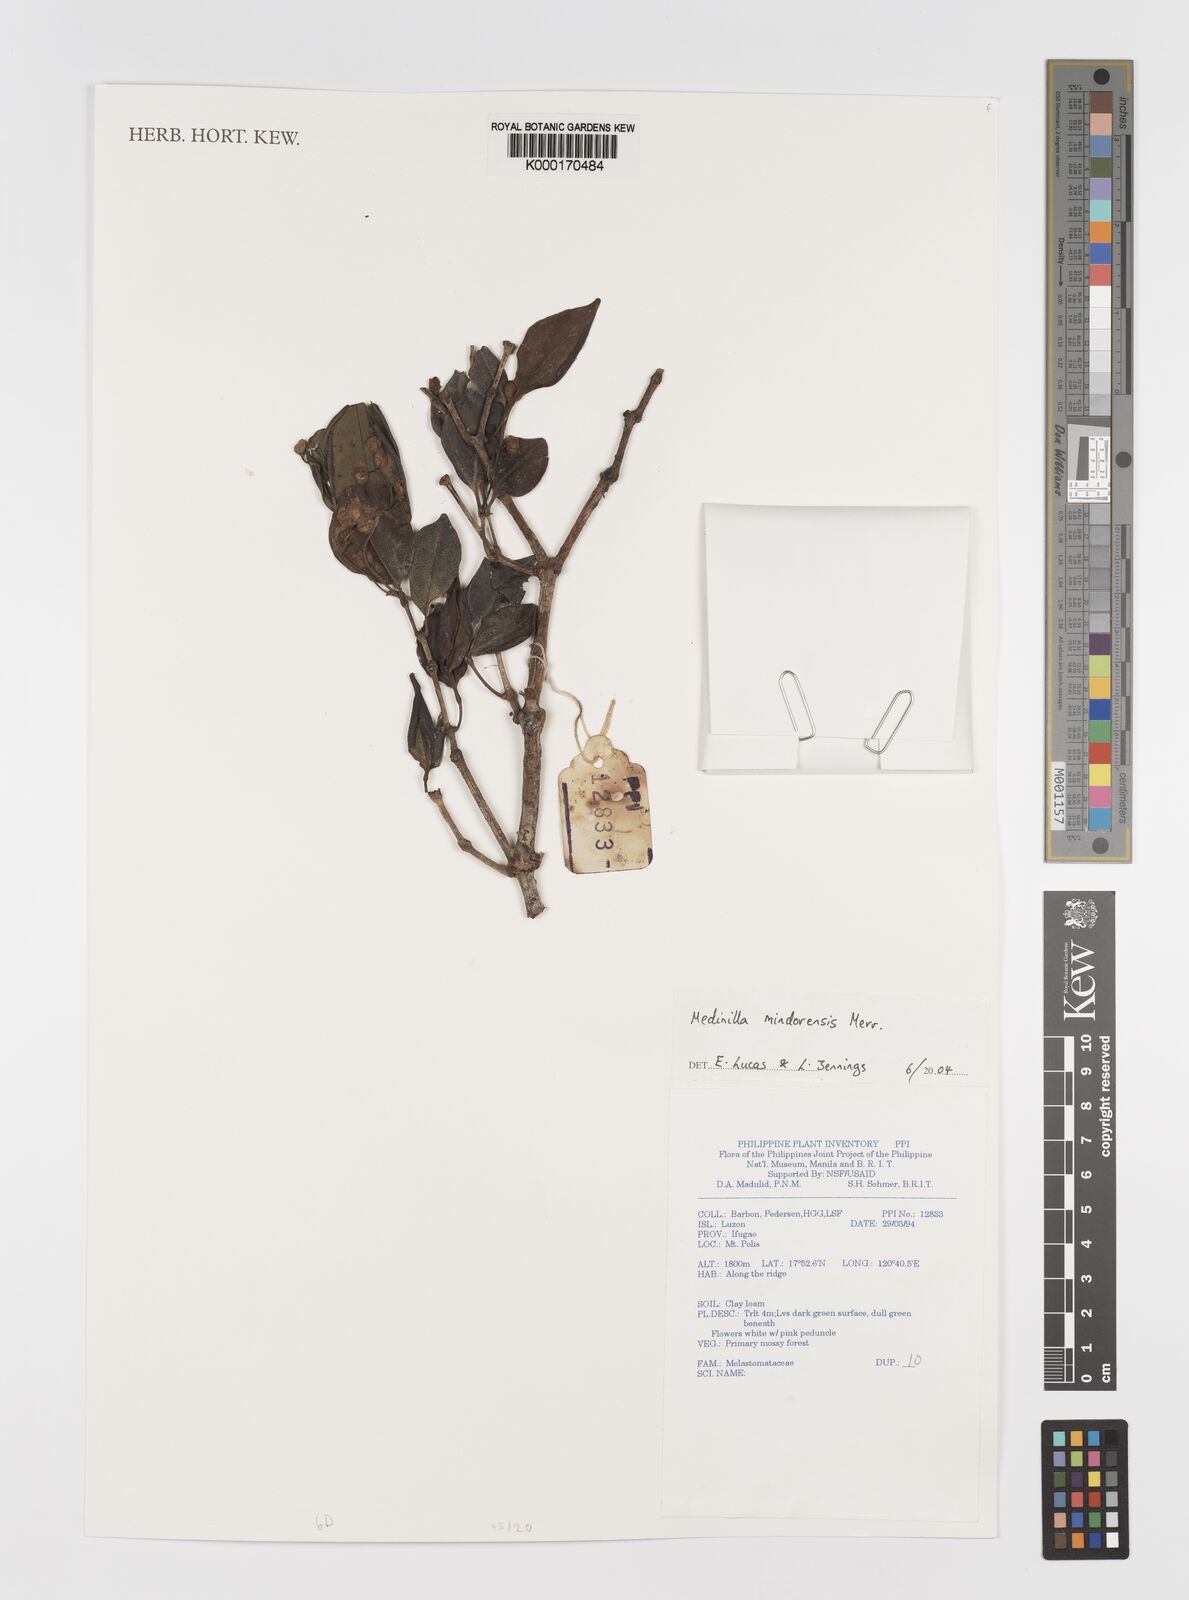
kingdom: Plantae
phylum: Tracheophyta
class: Magnoliopsida
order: Myrtales
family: Melastomataceae
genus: Medinilla
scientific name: Medinilla mindorensis
